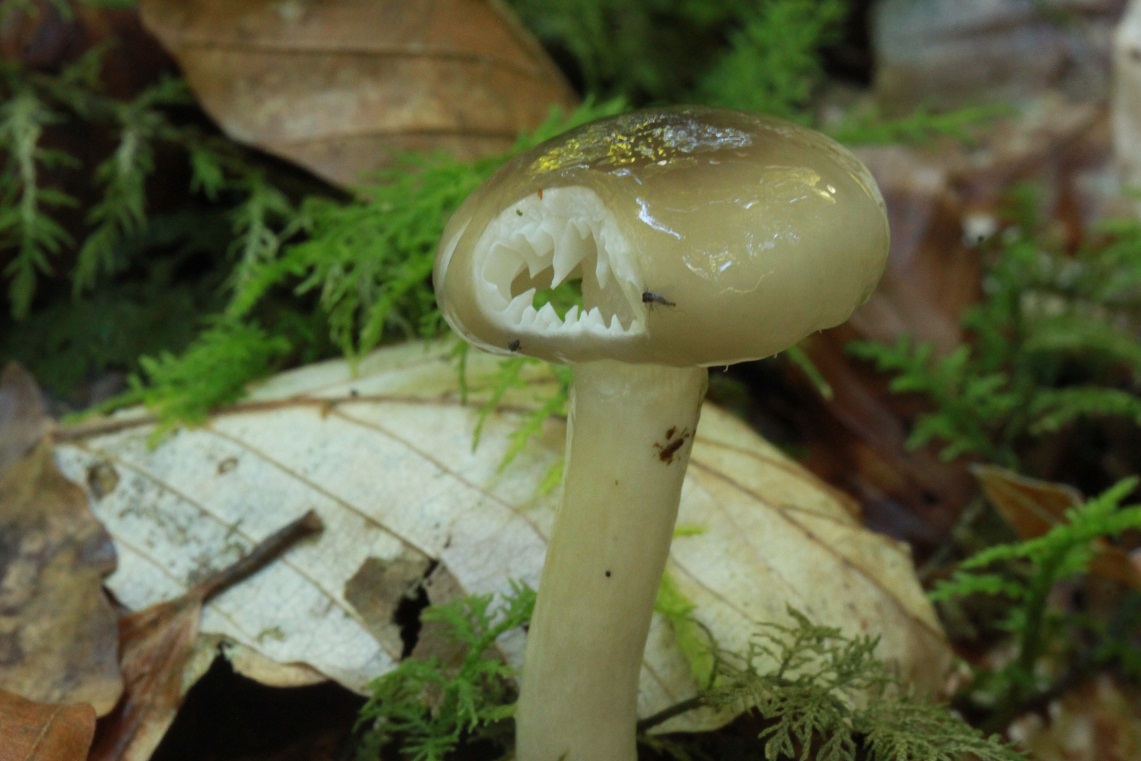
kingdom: Fungi
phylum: Basidiomycota
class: Agaricomycetes
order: Agaricales
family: Hygrophoraceae
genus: Hygrophorus
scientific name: Hygrophorus mesotephrus
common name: askegrå sneglehat
